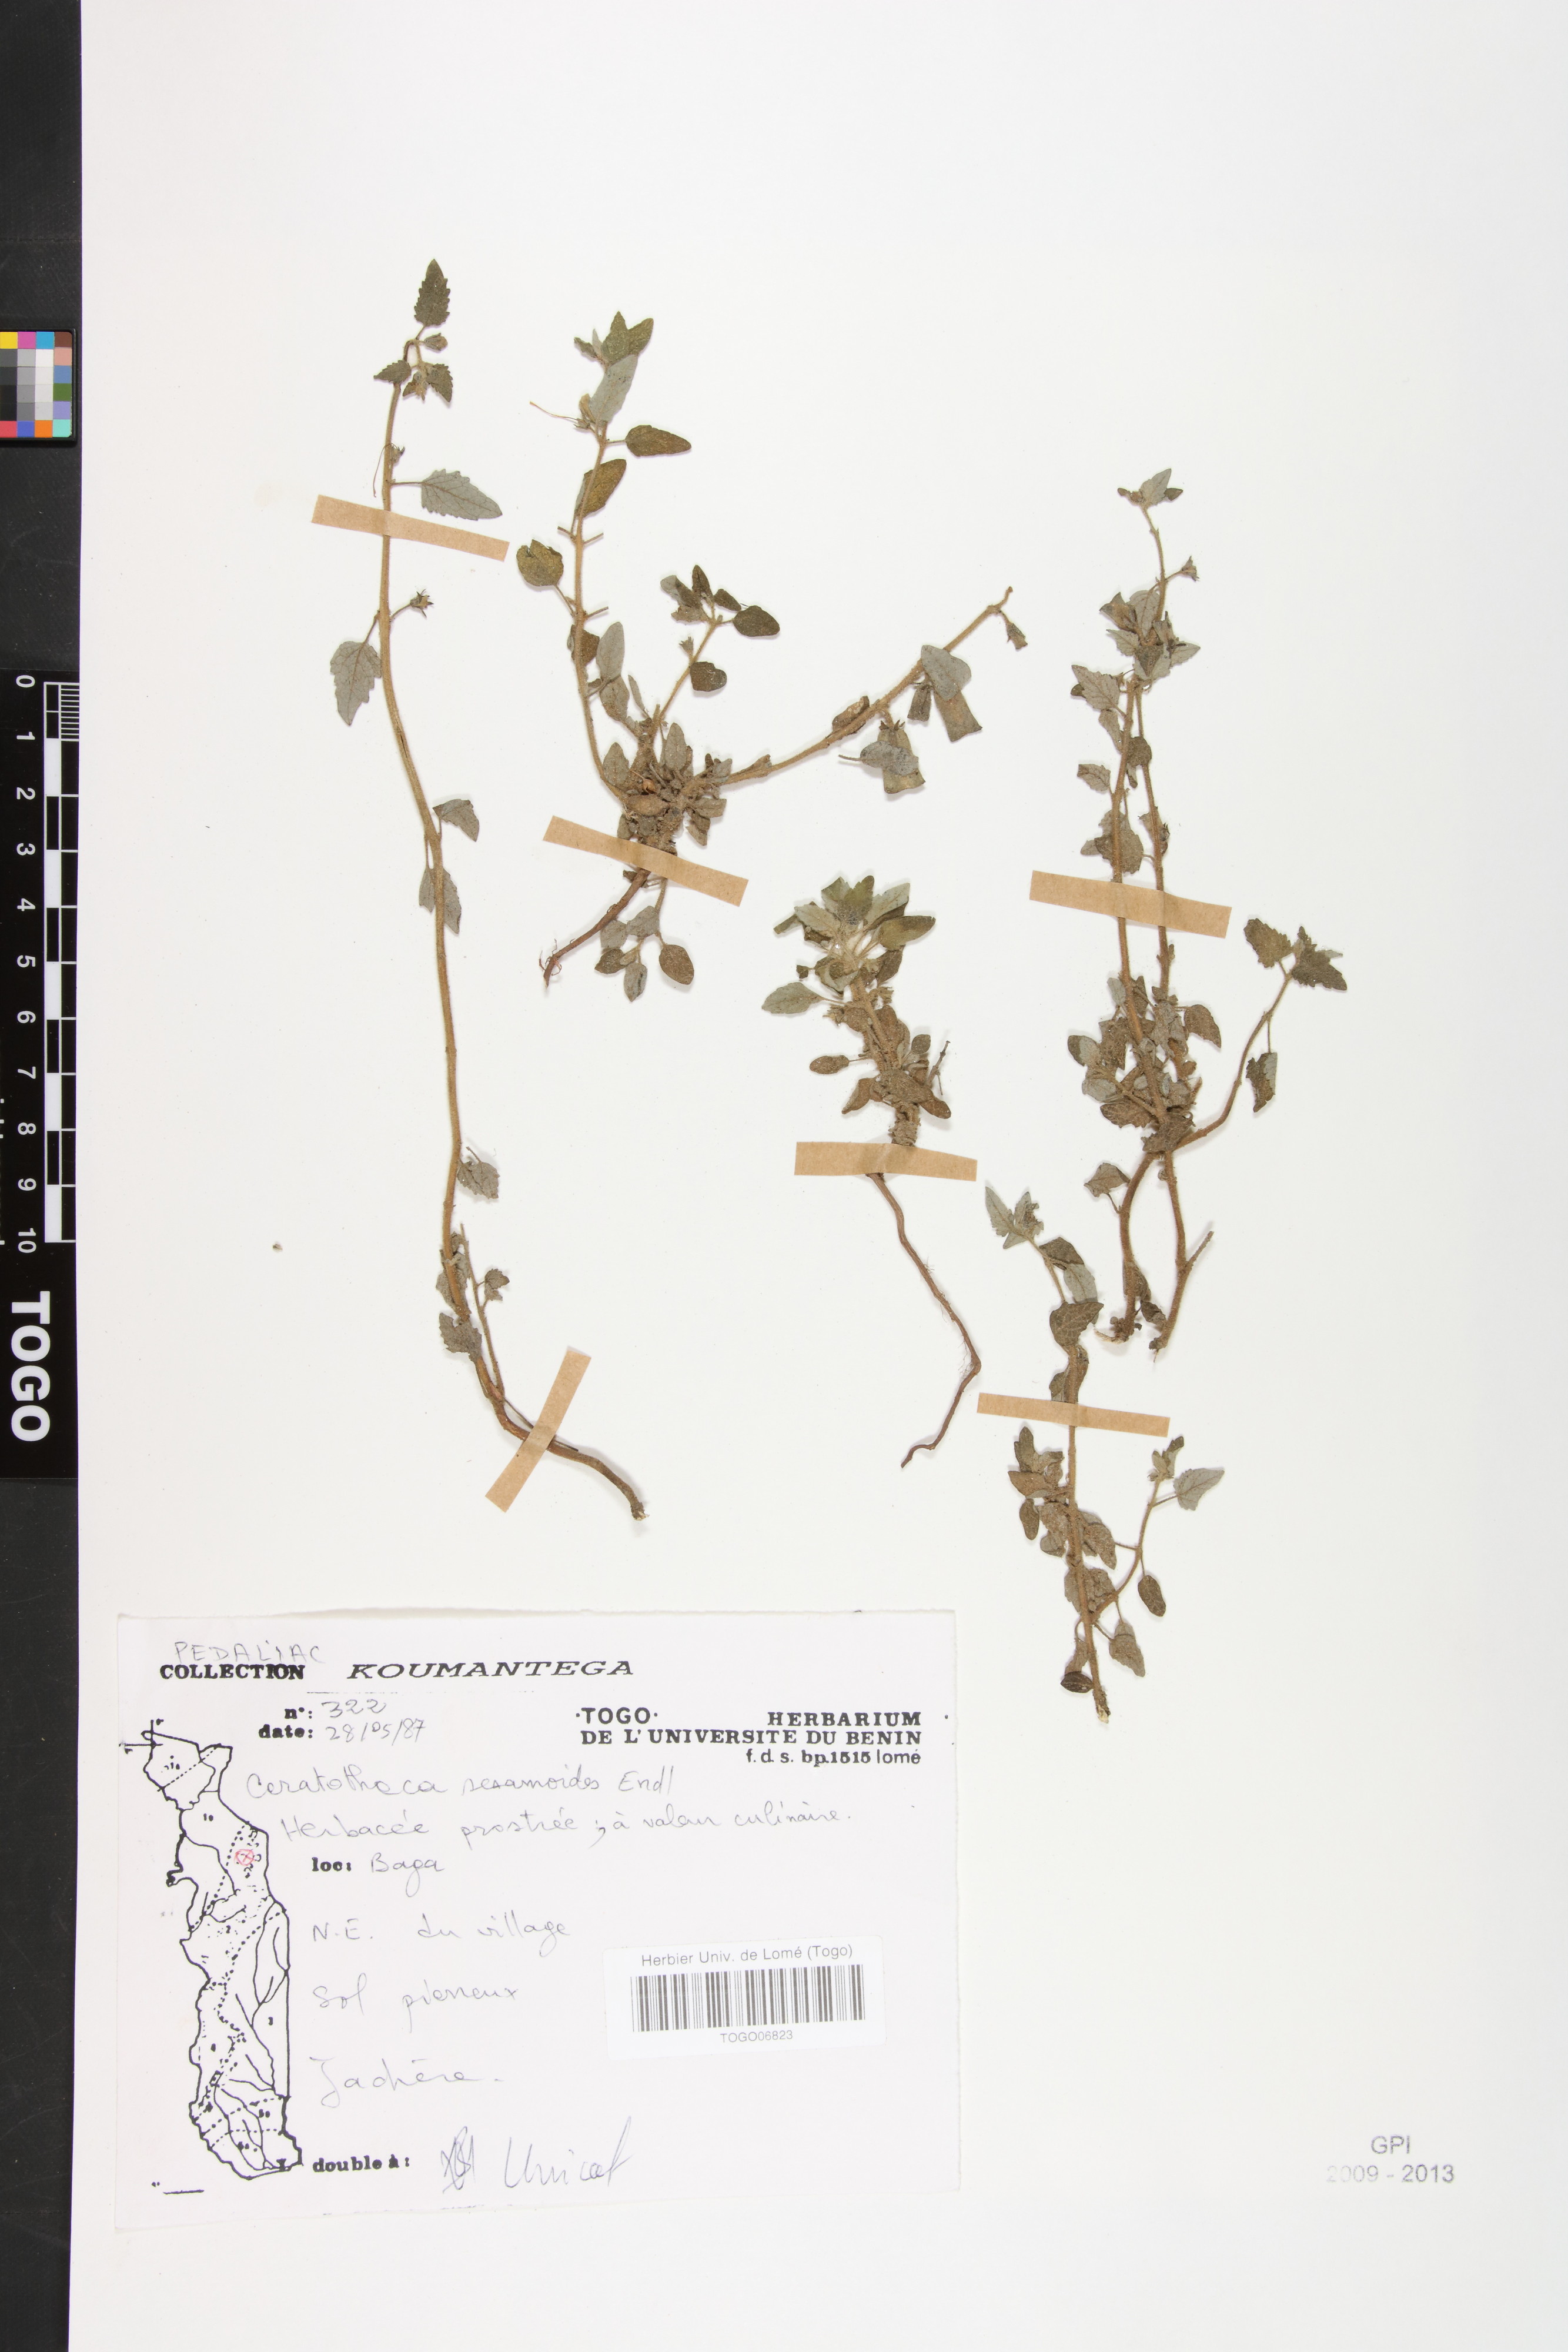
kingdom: Plantae
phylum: Tracheophyta
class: Magnoliopsida
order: Lamiales
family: Pedaliaceae
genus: Sesamum
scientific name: Sesamum sesamoides
